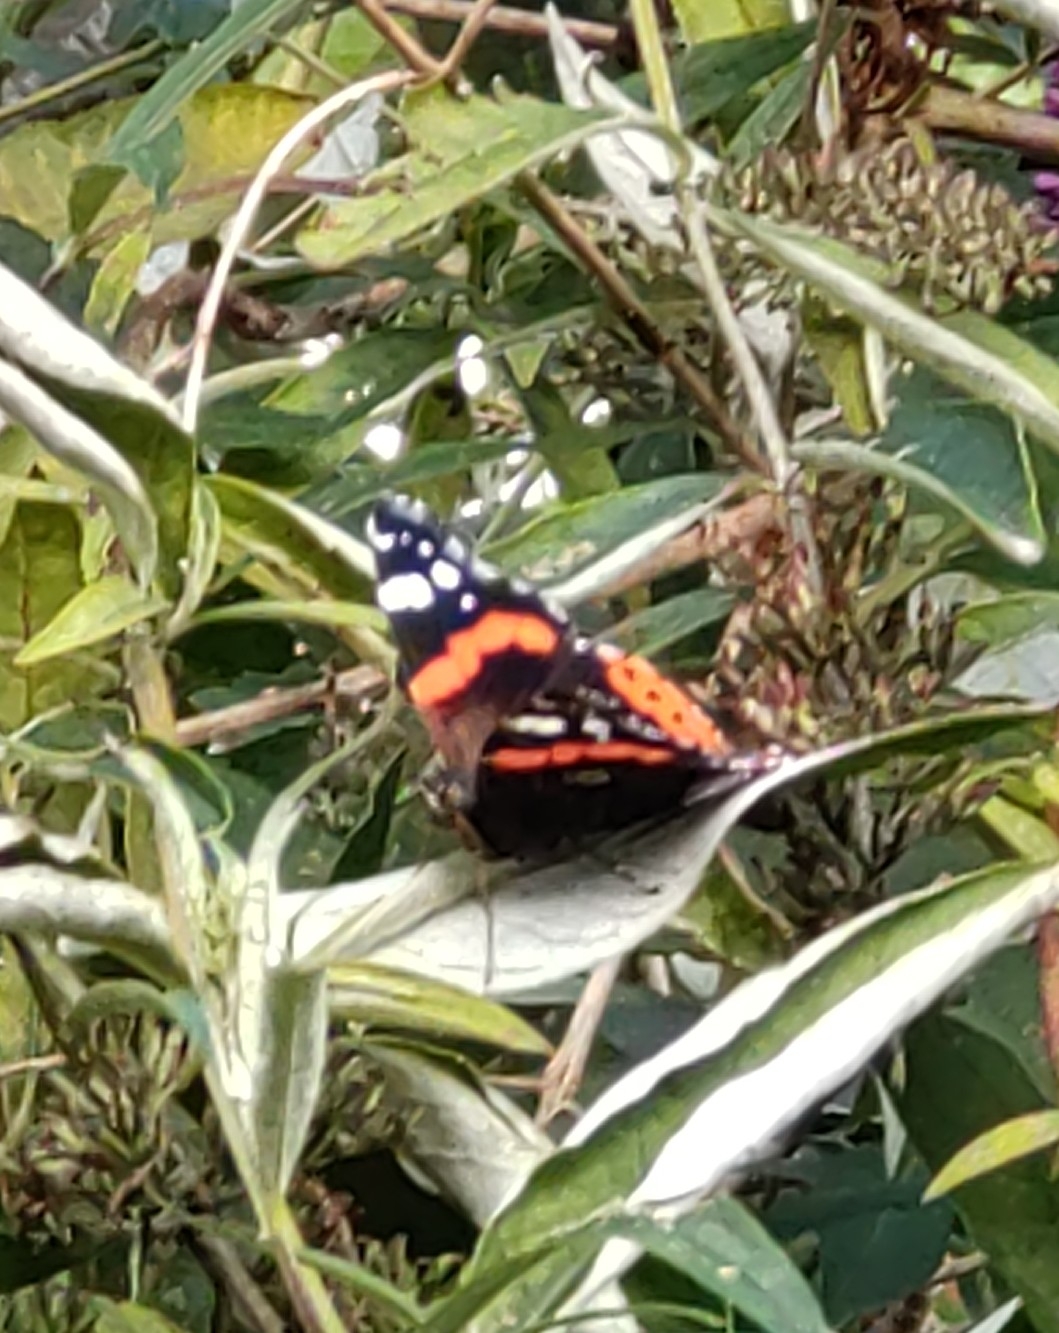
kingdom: Animalia
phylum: Arthropoda
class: Insecta
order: Lepidoptera
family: Nymphalidae
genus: Vanessa
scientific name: Vanessa atalanta
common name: Admiral
